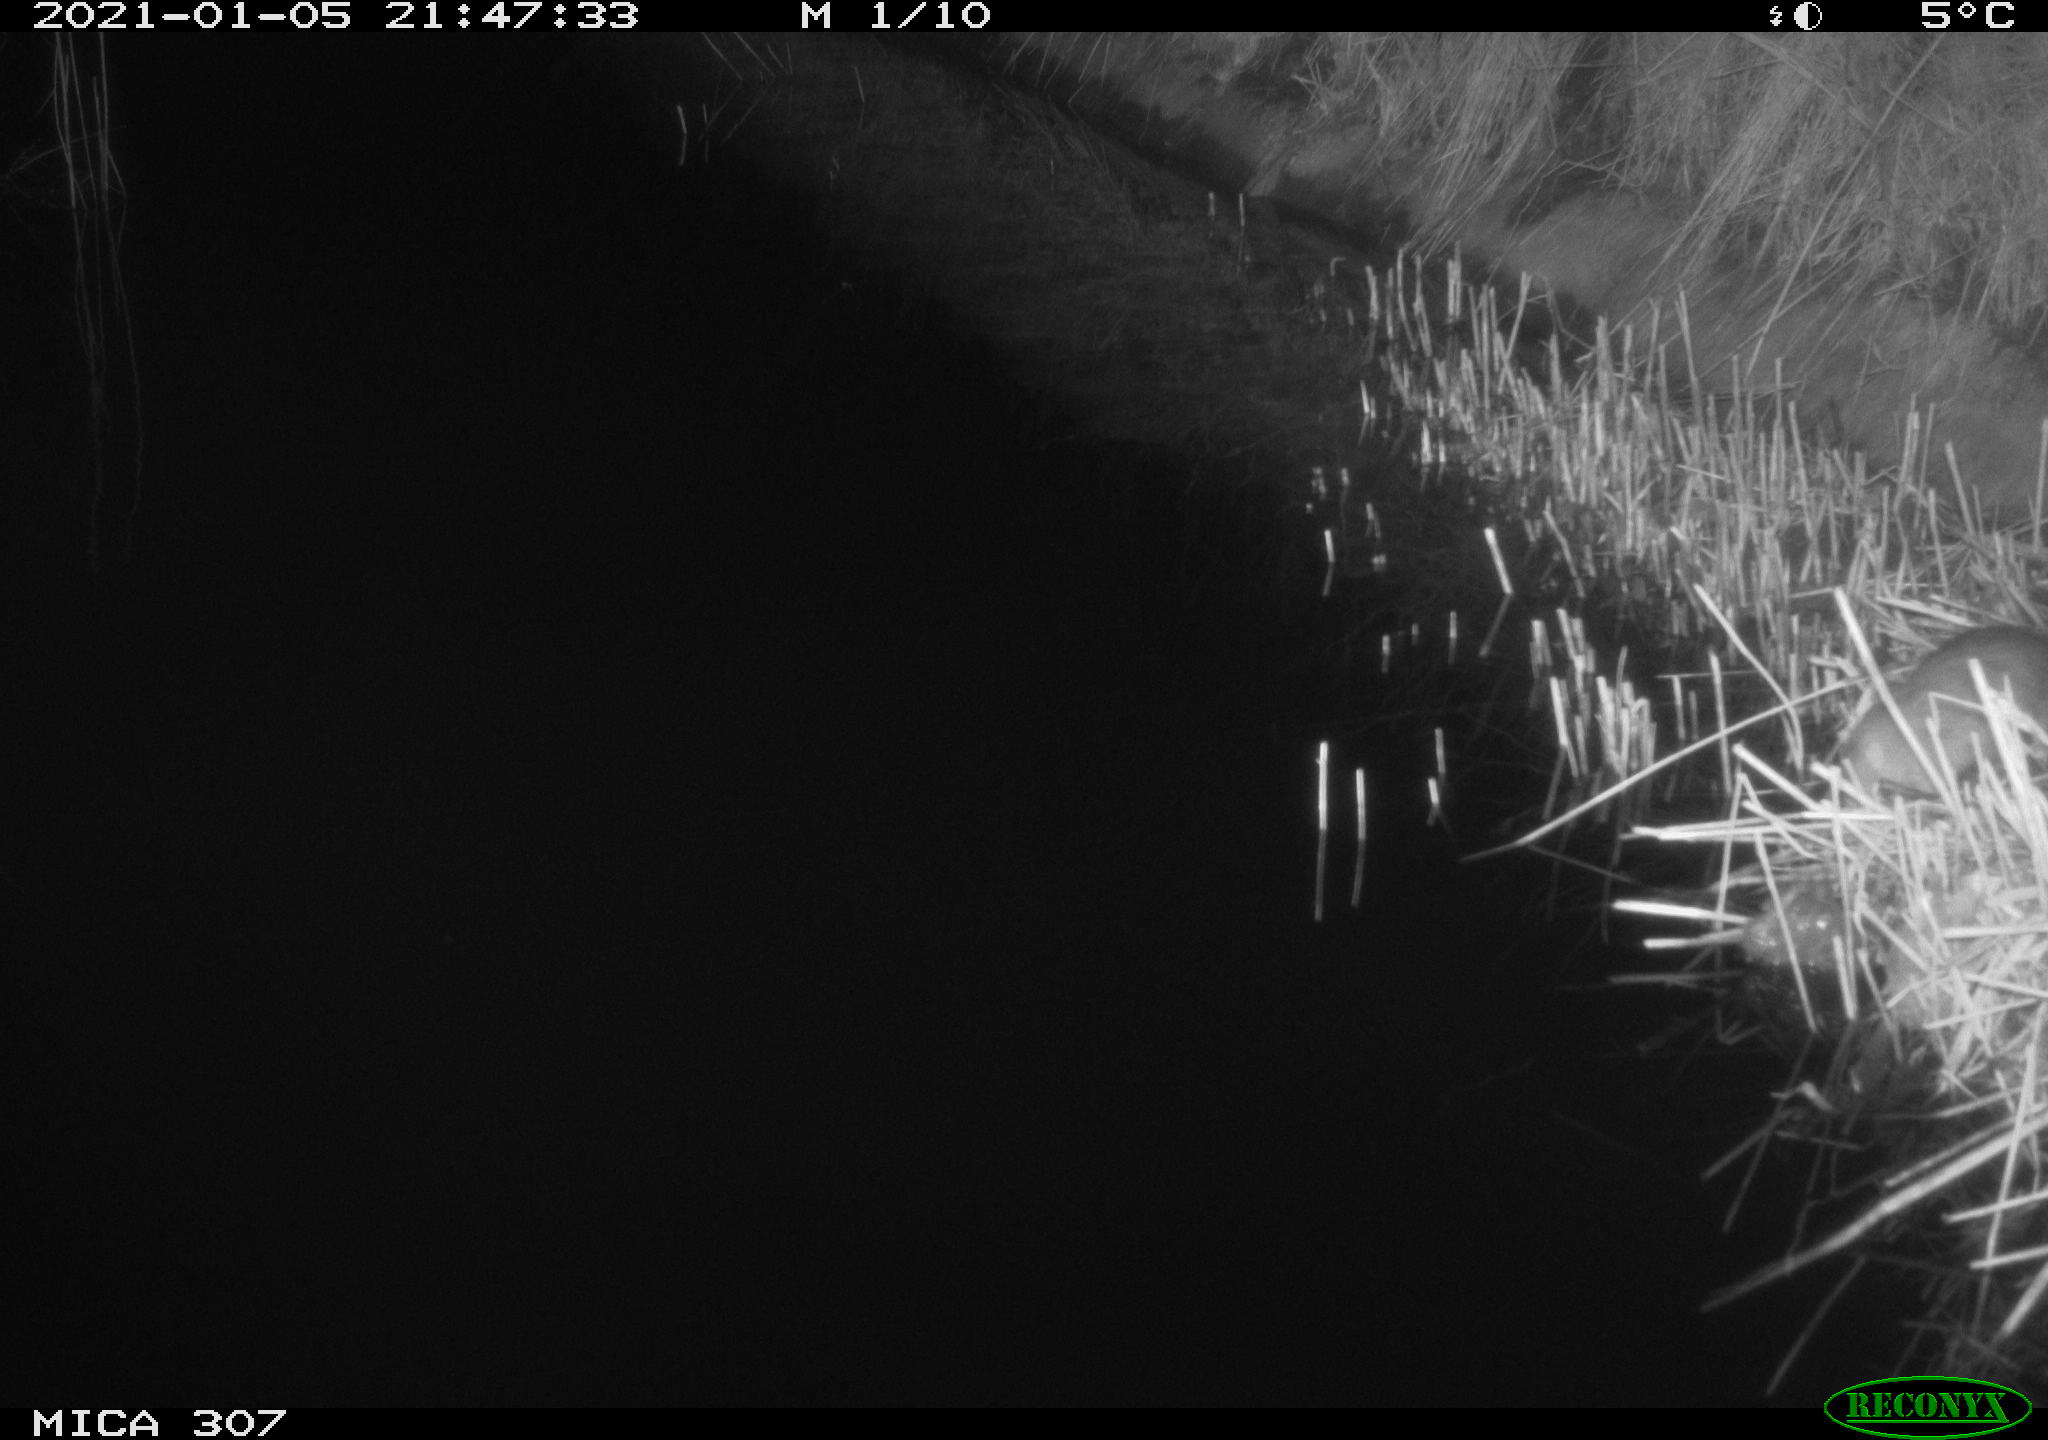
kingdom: Animalia
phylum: Chordata
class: Mammalia
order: Rodentia
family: Muridae
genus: Rattus
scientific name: Rattus norvegicus
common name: Brown rat
